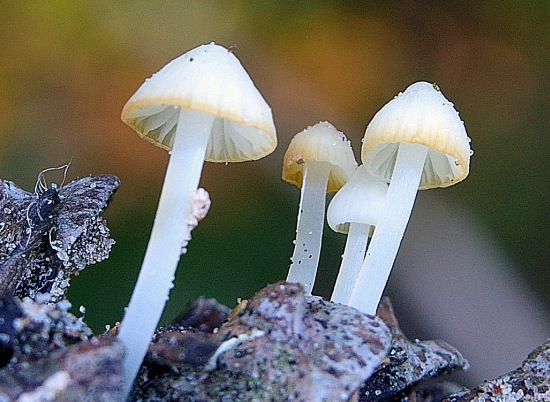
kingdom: Fungi
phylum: Basidiomycota
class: Agaricomycetes
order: Agaricales
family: Mycenaceae
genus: Atheniella
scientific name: Atheniella flavoalba
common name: gulhvid huesvamp
